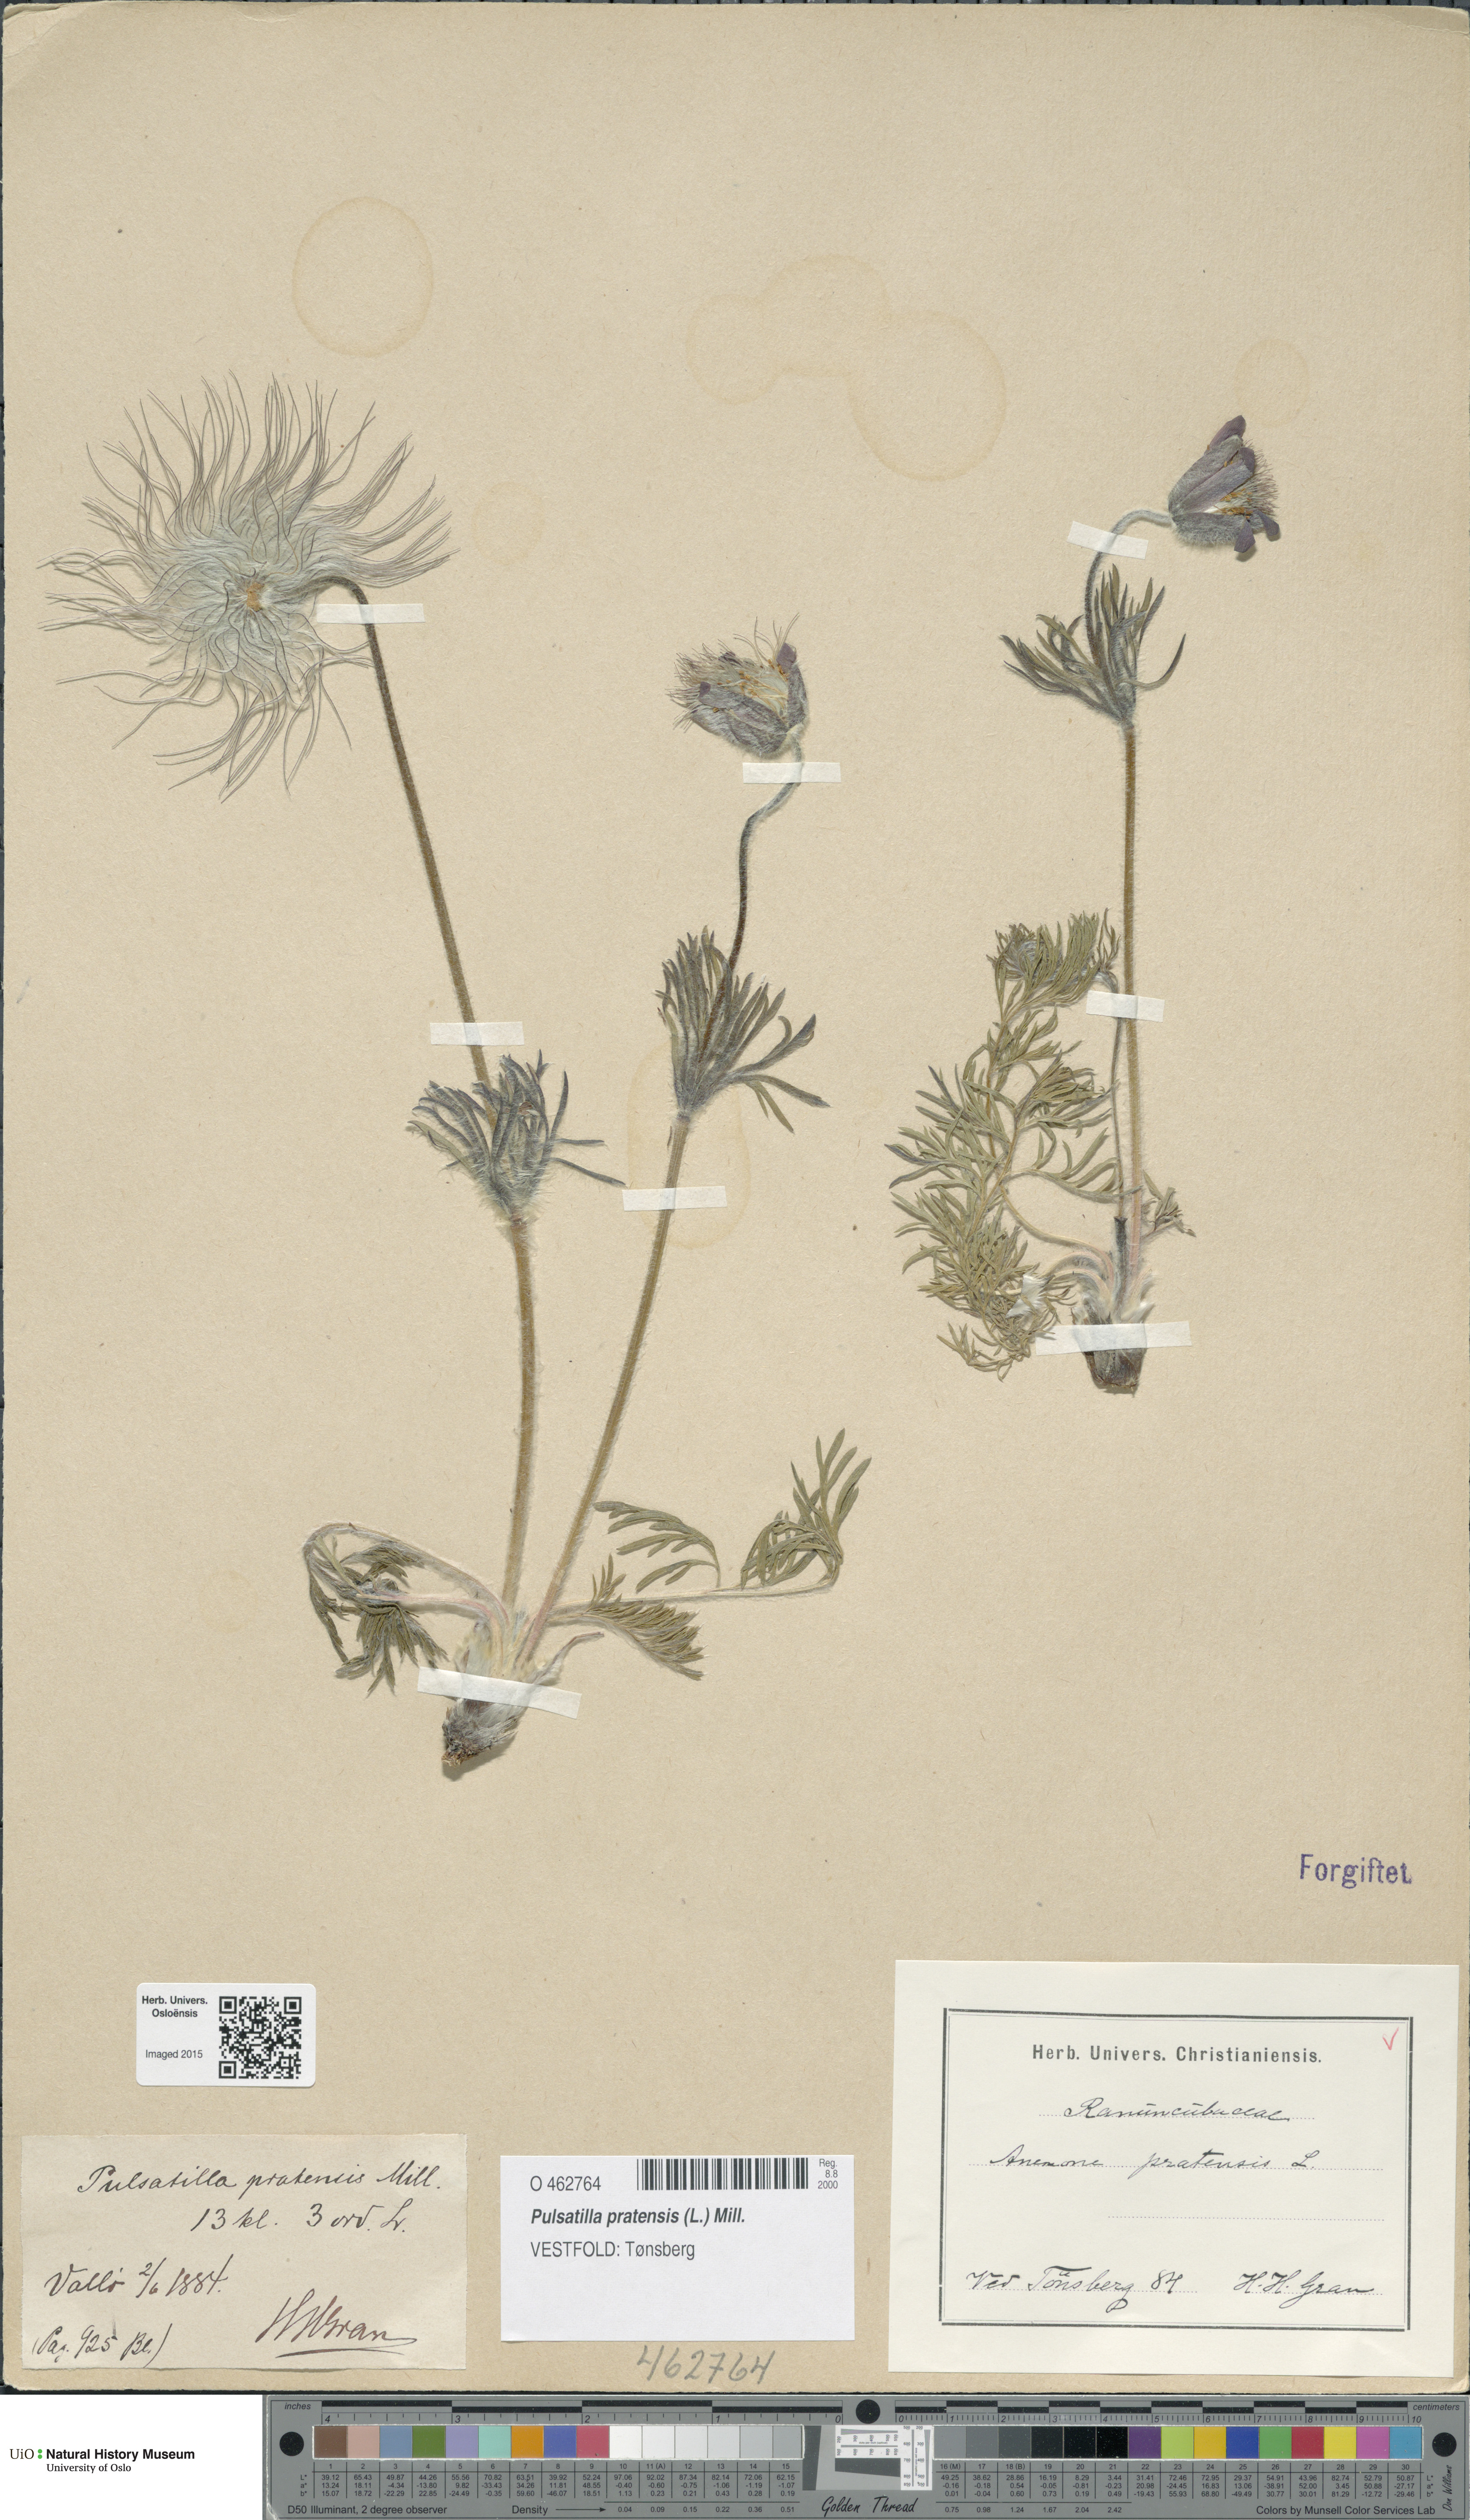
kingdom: Plantae
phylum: Tracheophyta
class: Magnoliopsida
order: Ranunculales
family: Ranunculaceae
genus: Pulsatilla
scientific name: Pulsatilla pratensis
